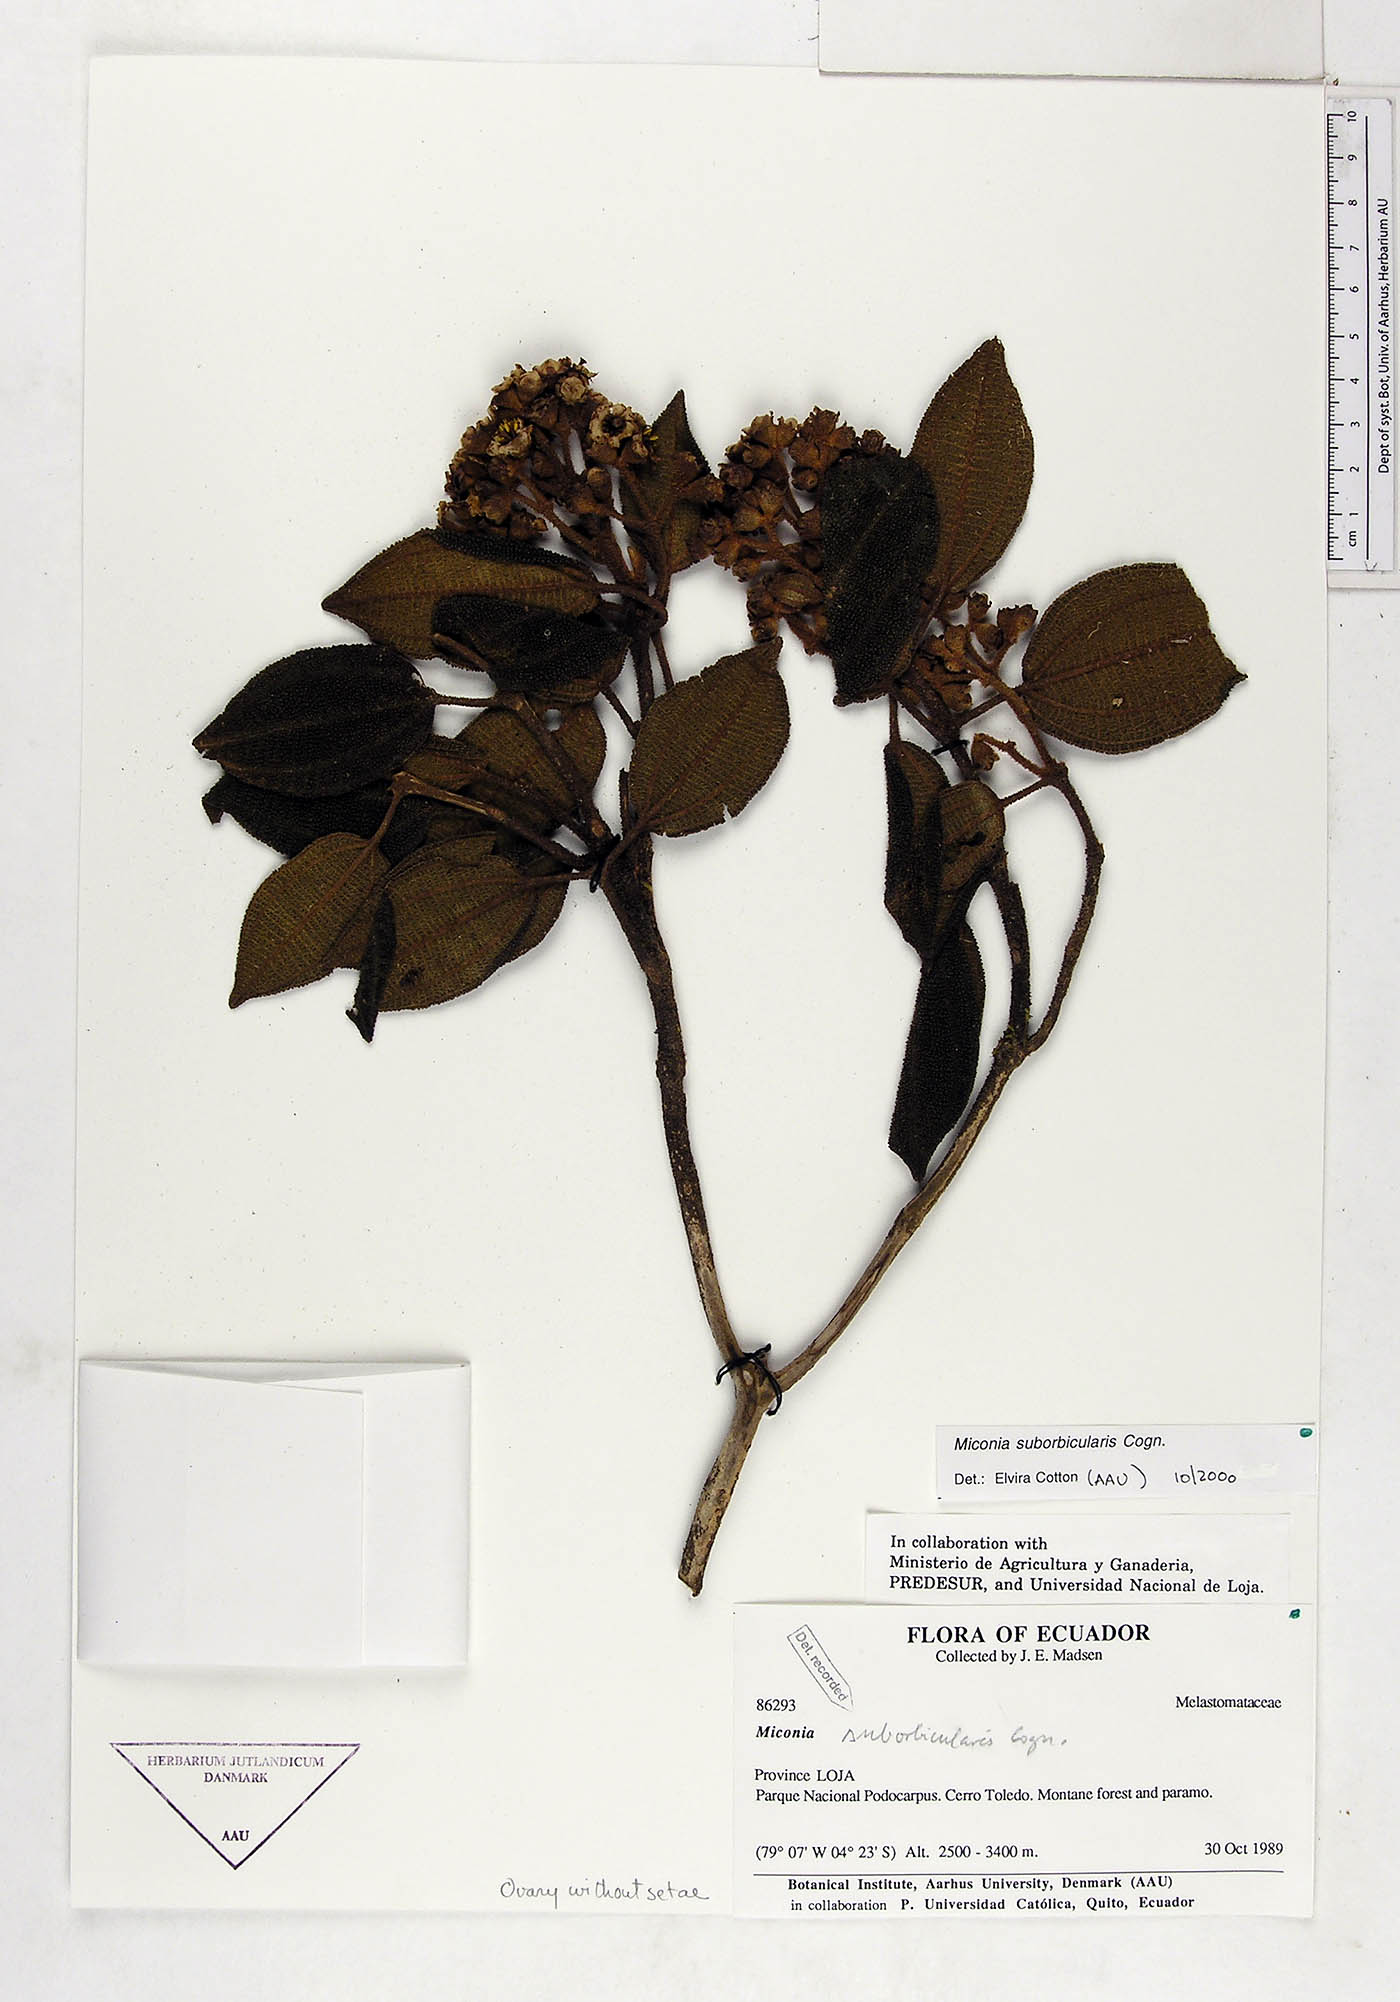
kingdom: Plantae
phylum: Tracheophyta
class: Magnoliopsida
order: Myrtales
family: Melastomataceae
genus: Miconia
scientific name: Miconia suborbicularis
